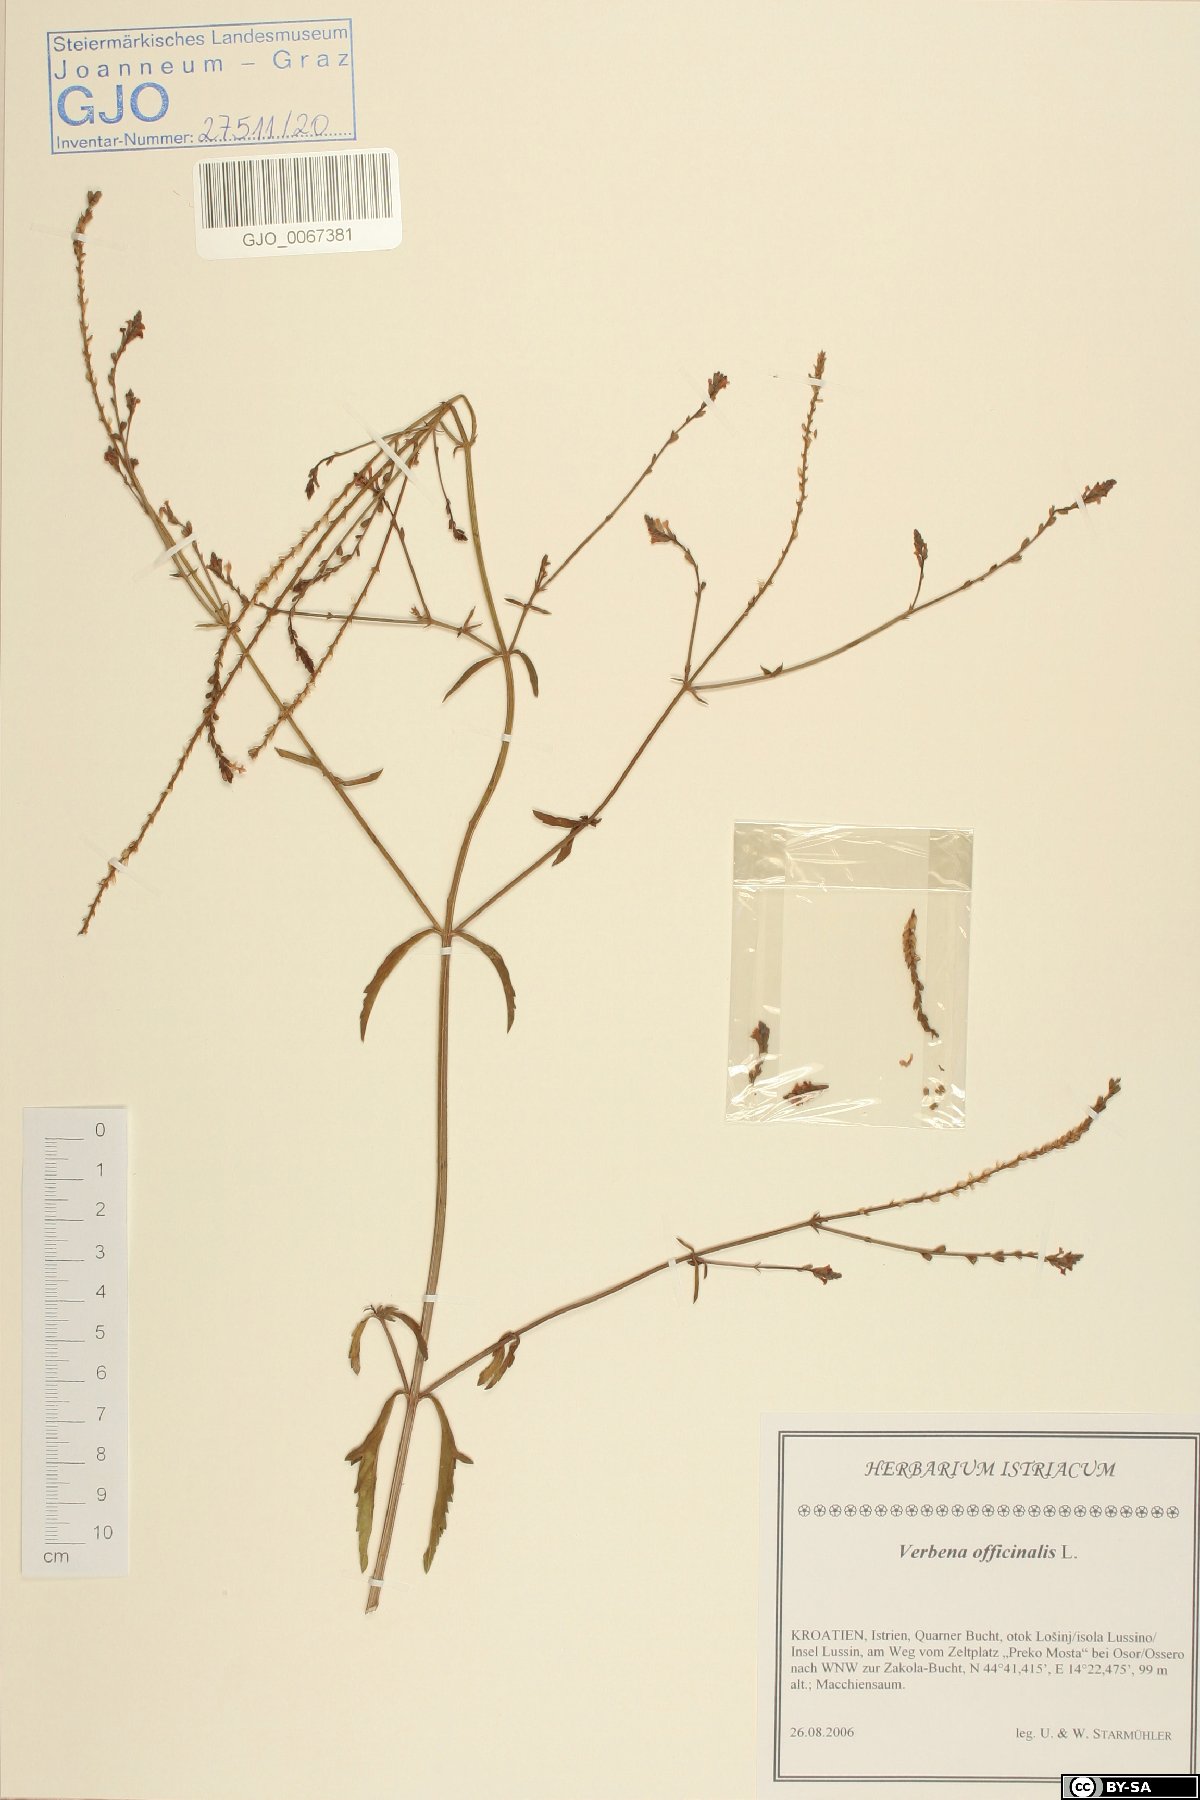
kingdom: Plantae
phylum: Tracheophyta
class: Magnoliopsida
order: Lamiales
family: Verbenaceae
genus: Verbena
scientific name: Verbena officinalis
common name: Vervain
